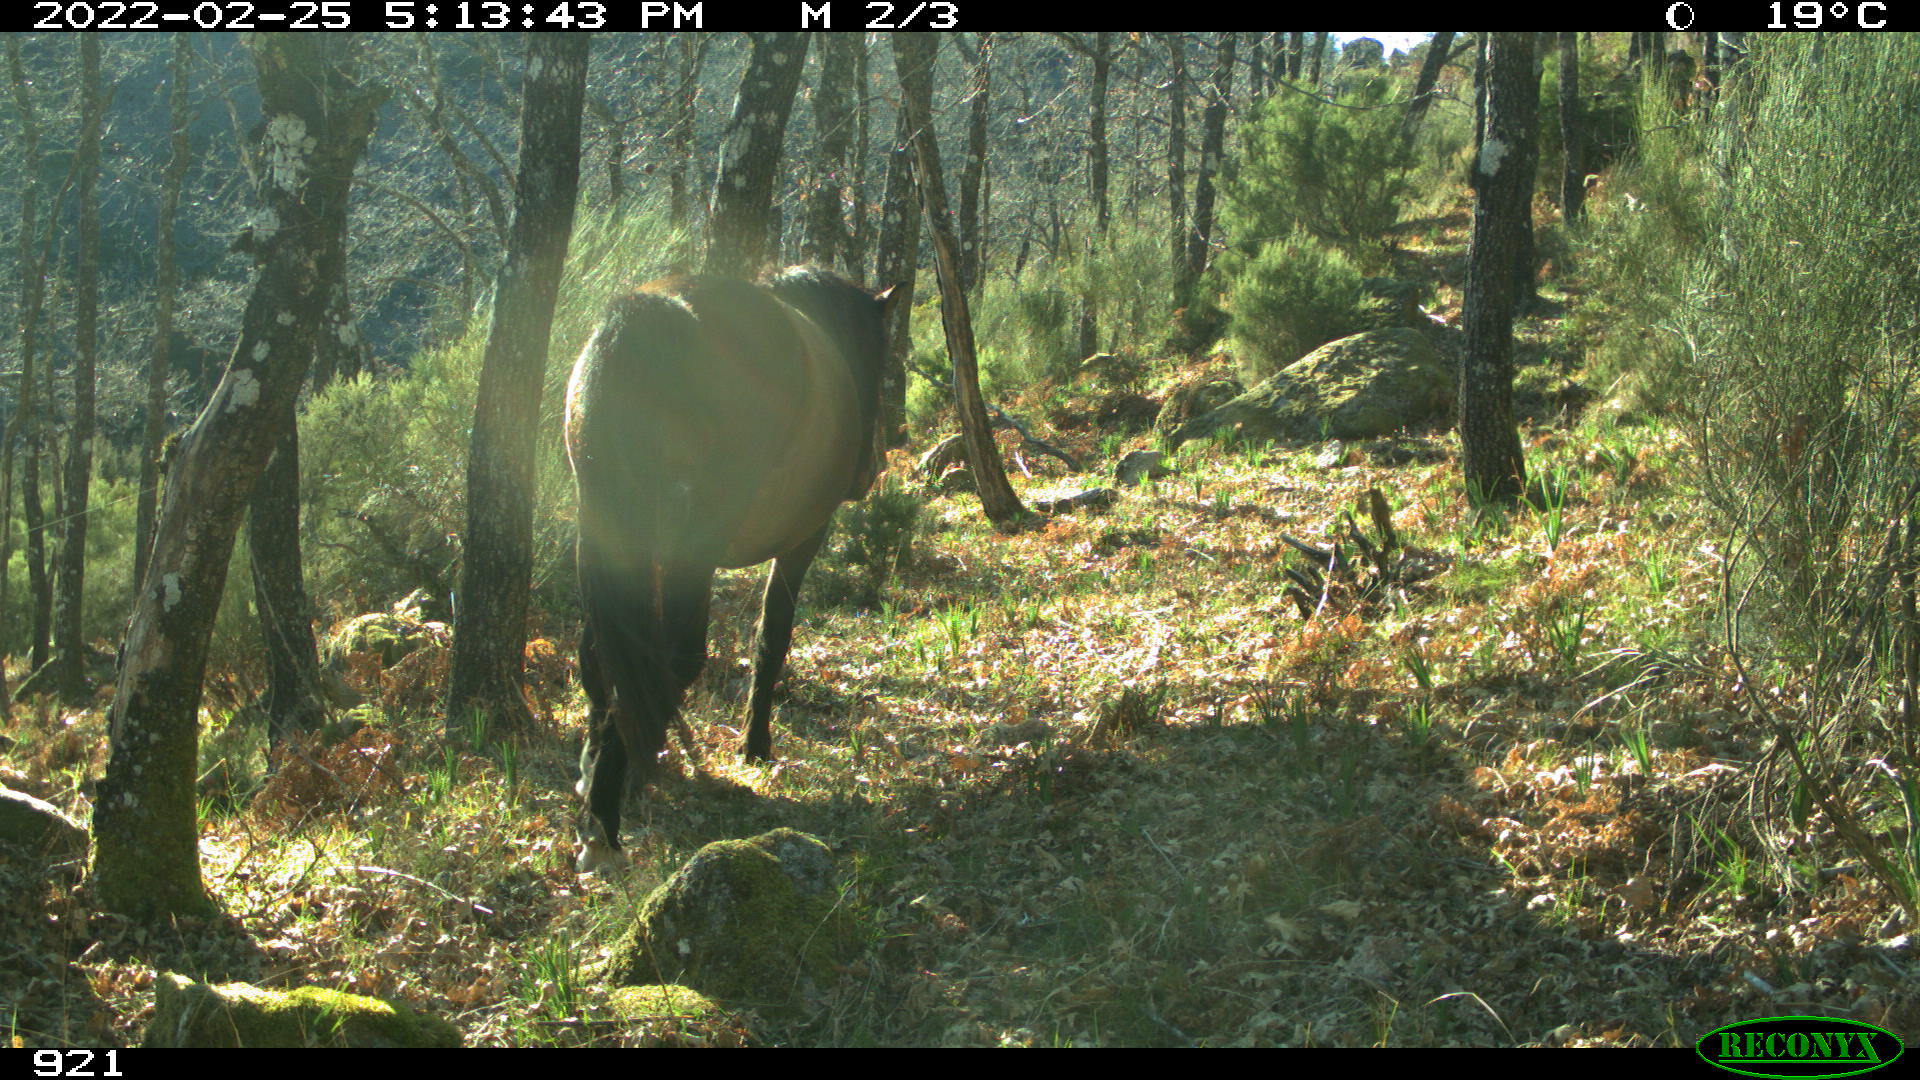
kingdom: Animalia
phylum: Chordata
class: Mammalia
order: Perissodactyla
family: Equidae
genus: Equus
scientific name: Equus caballus
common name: Horse
